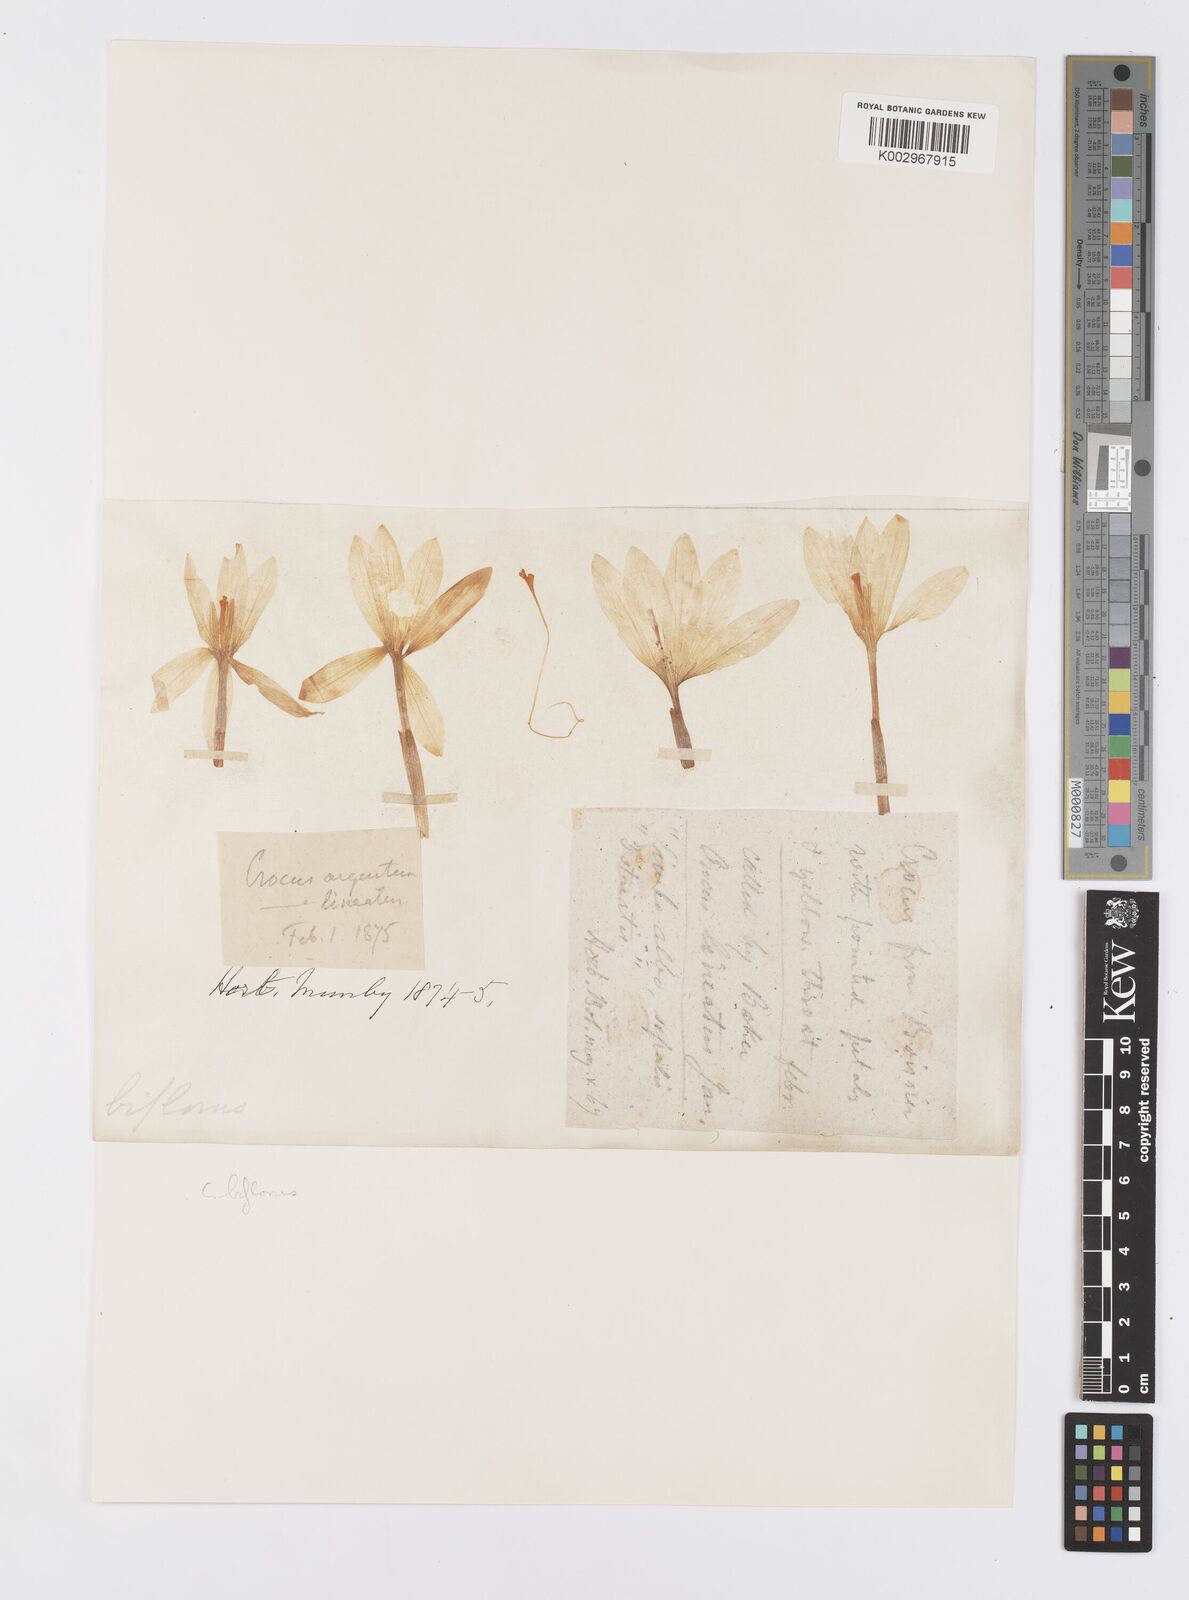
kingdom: Plantae
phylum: Tracheophyta
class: Liliopsida
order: Asparagales
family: Iridaceae
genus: Crocus
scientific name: Crocus
